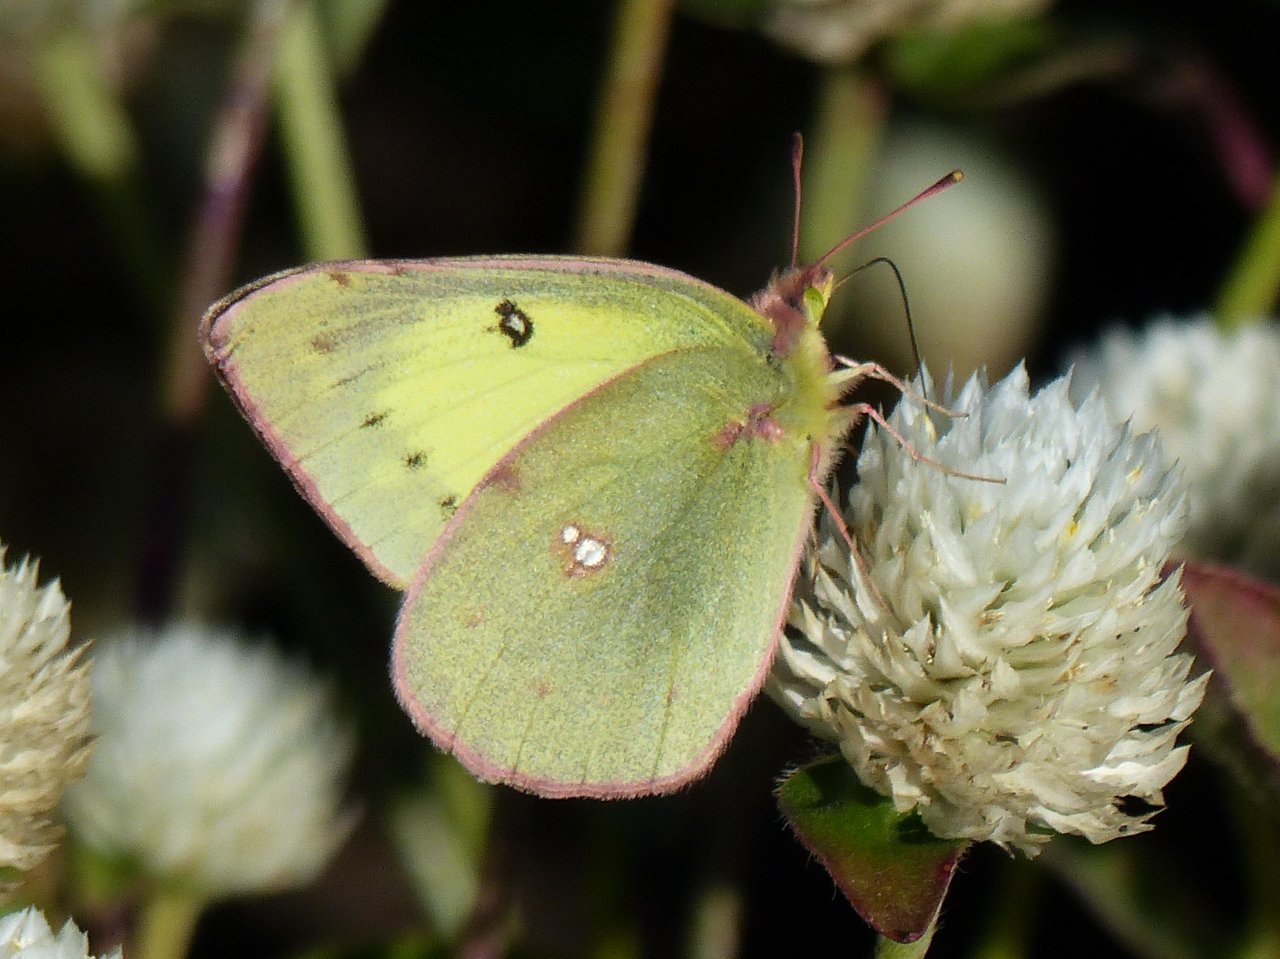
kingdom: Animalia
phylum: Arthropoda
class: Insecta
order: Lepidoptera
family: Pieridae
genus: Colias
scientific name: Colias philodice
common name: Clouded Sulphur
